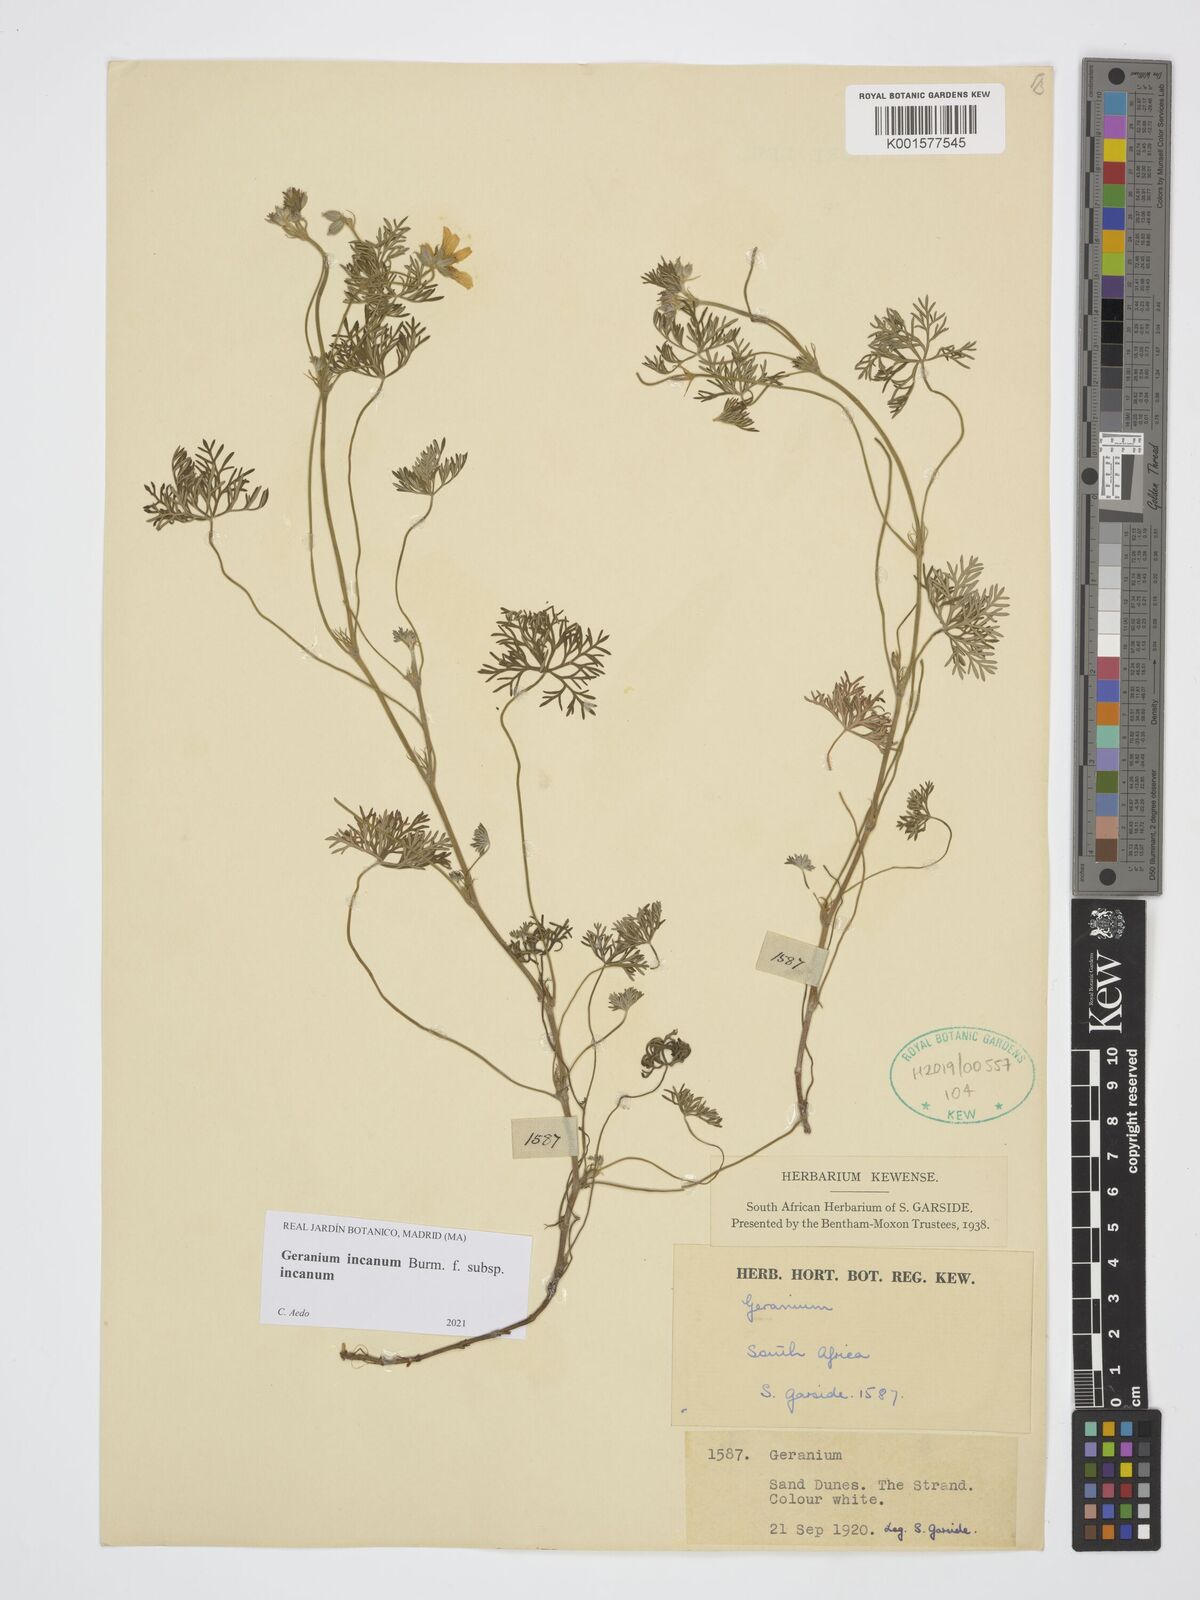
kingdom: Plantae
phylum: Tracheophyta
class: Magnoliopsida
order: Geraniales
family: Geraniaceae
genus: Geranium
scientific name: Geranium incanum
